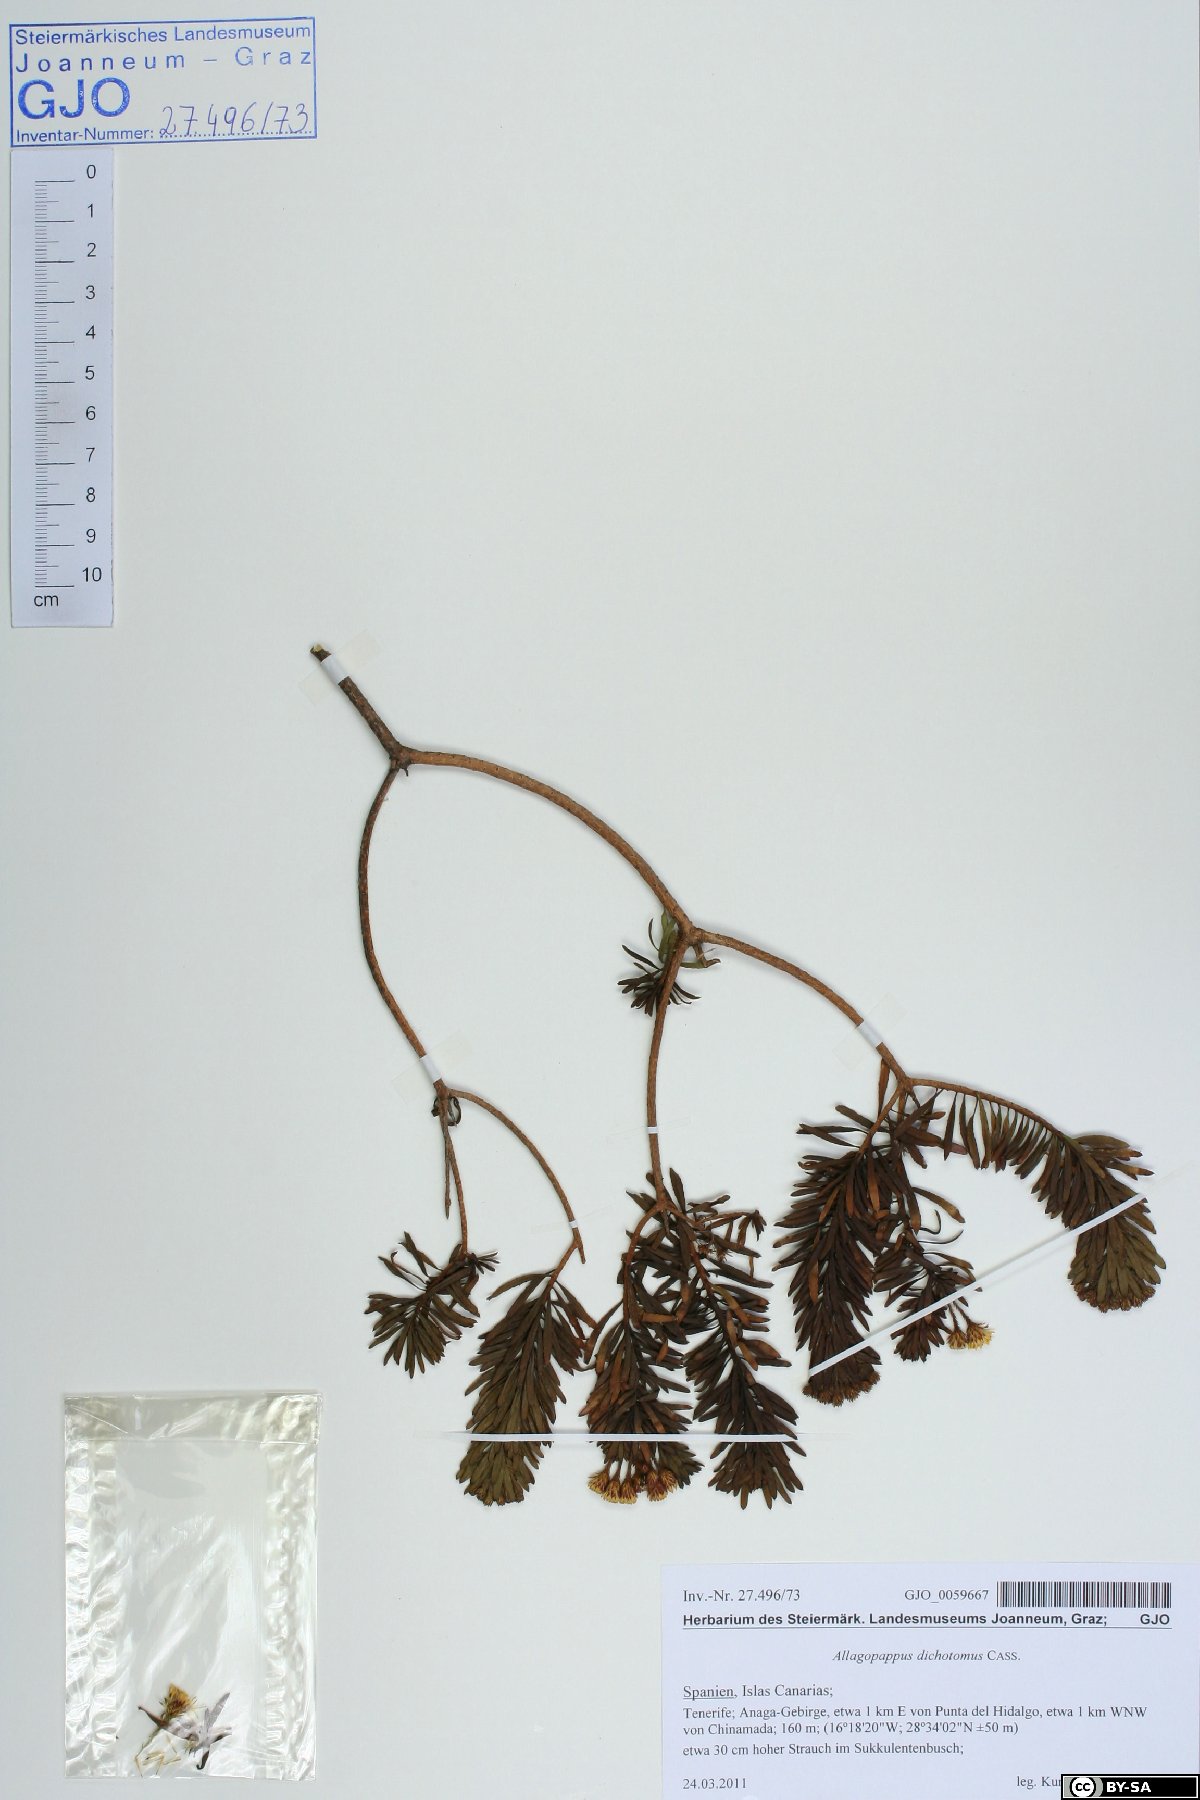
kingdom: Plantae
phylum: Tracheophyta
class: Magnoliopsida
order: Asterales
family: Asteraceae
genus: Allagopappus
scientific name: Allagopappus canariensis
